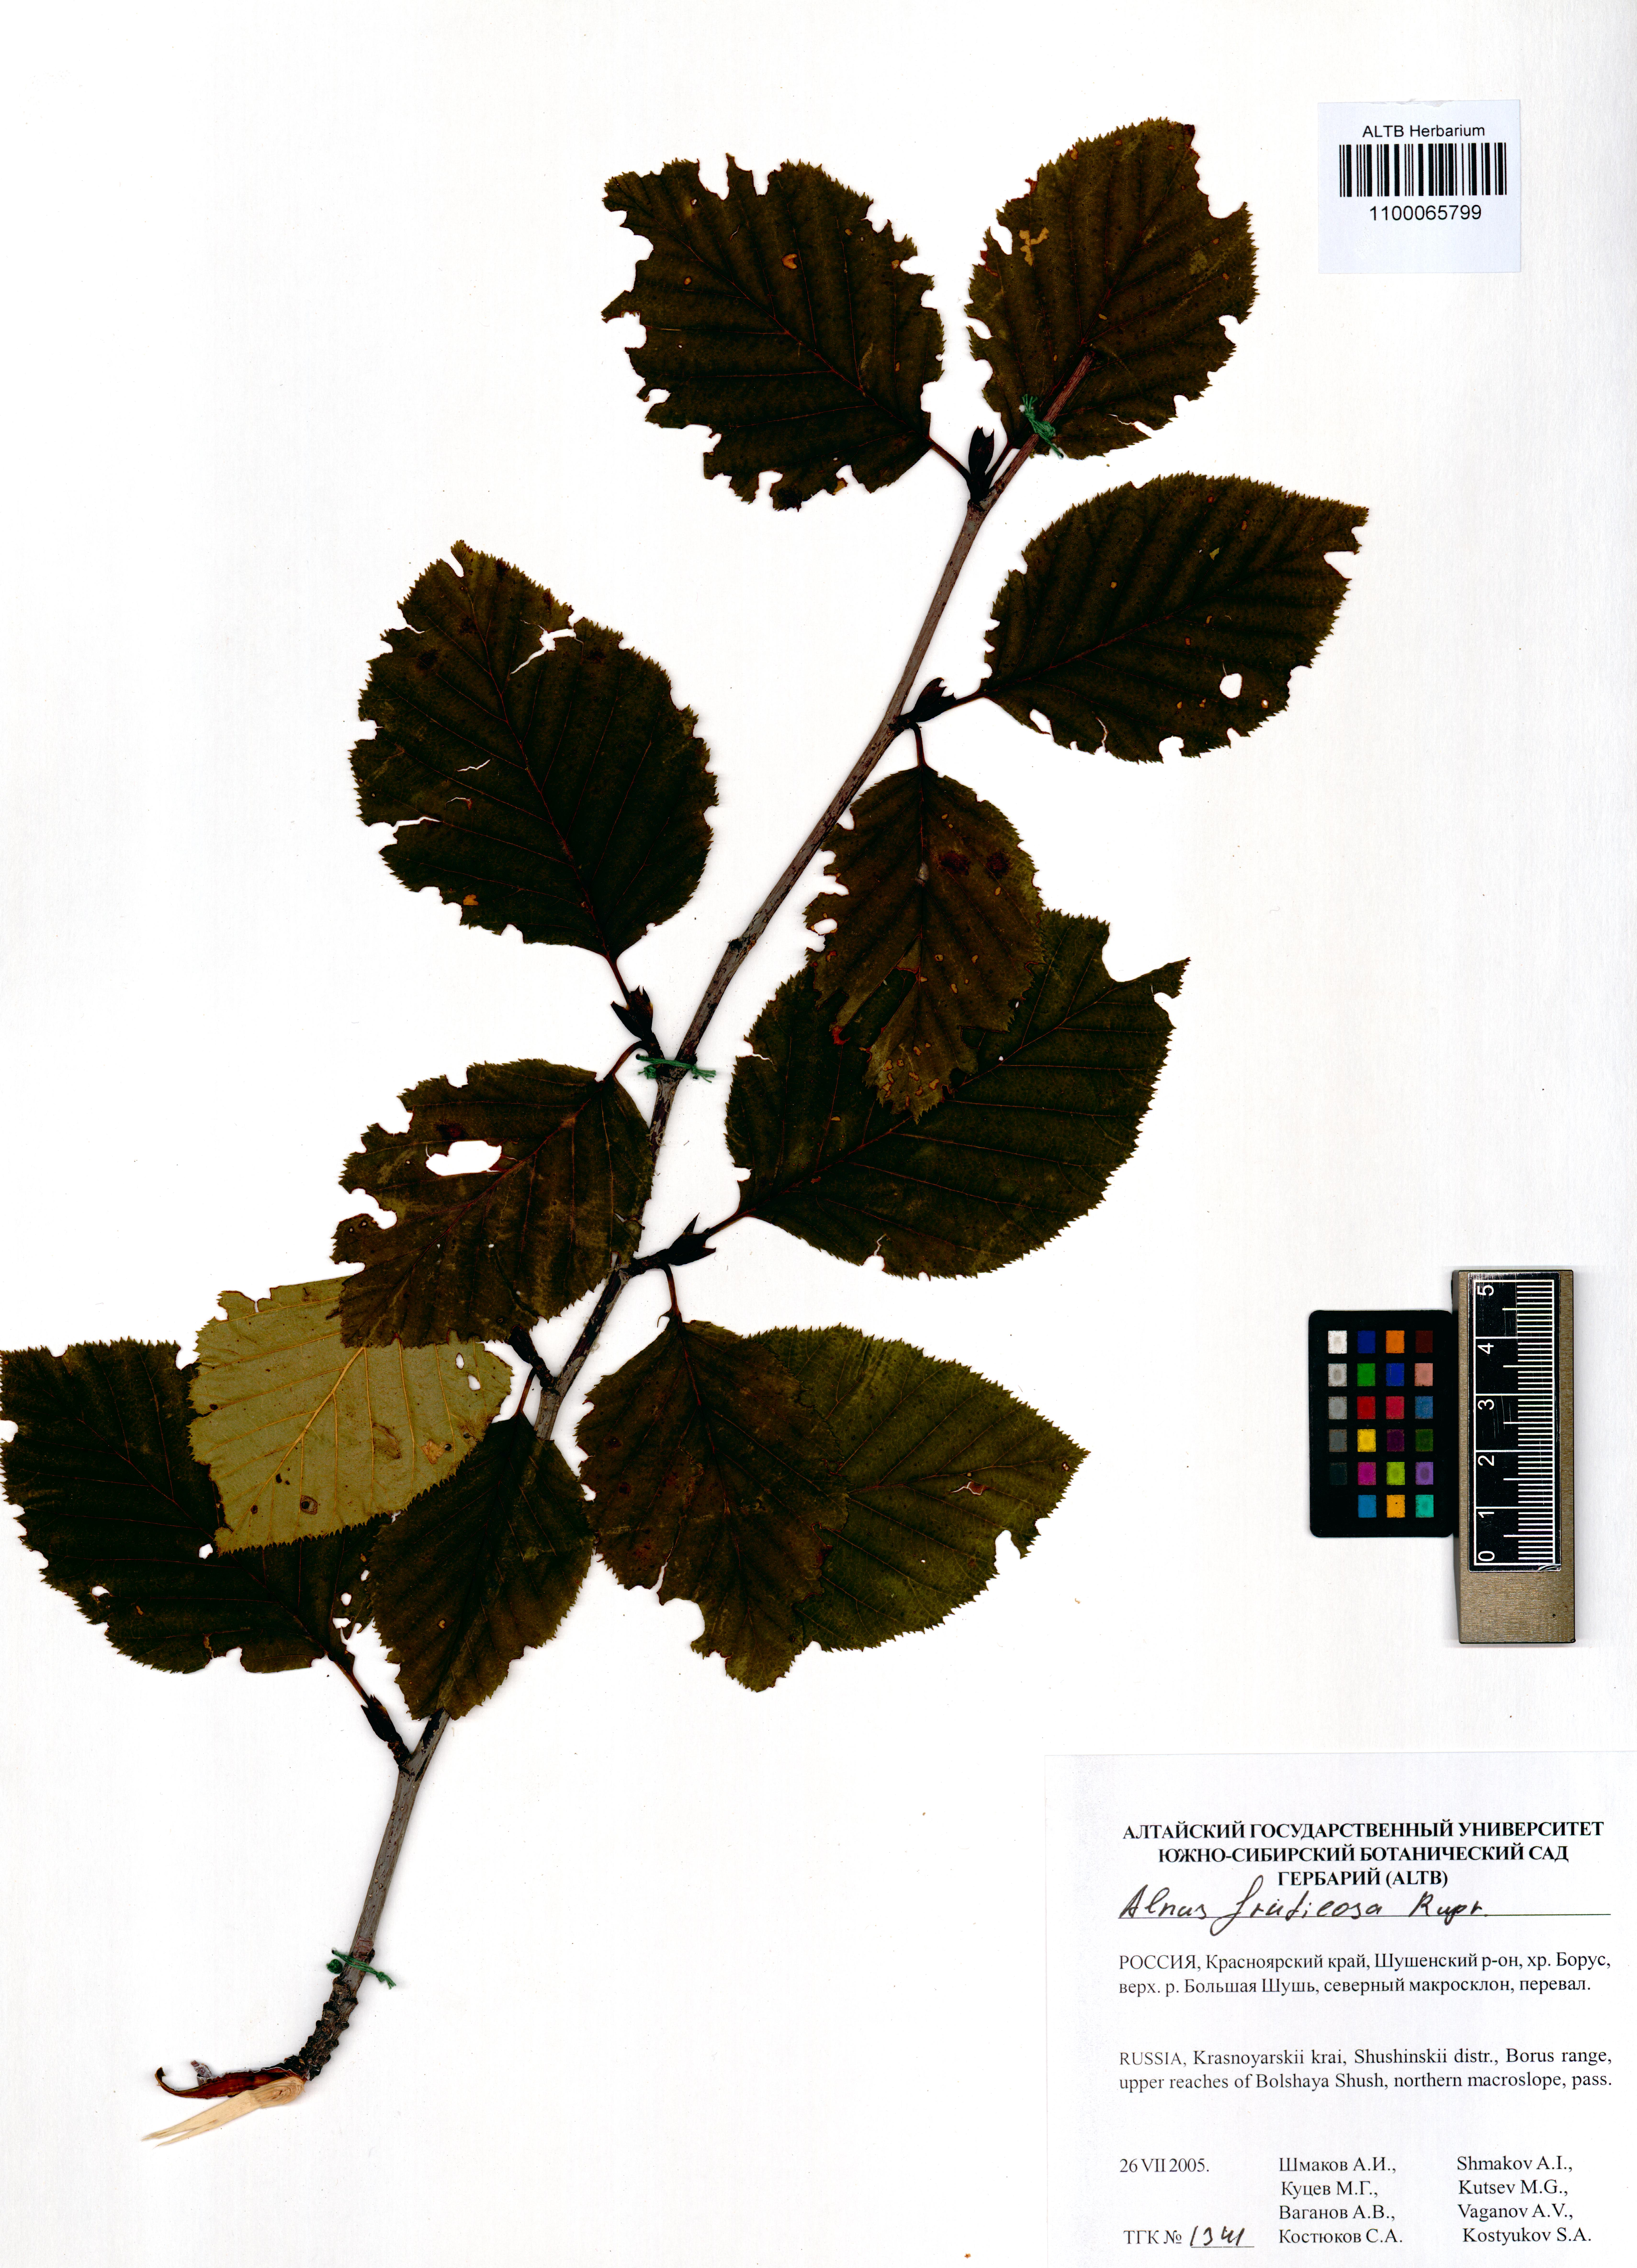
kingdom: Plantae
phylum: Tracheophyta
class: Magnoliopsida
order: Fagales
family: Betulaceae
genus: Alnus
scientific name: Alnus alnobetula
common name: Green alder
